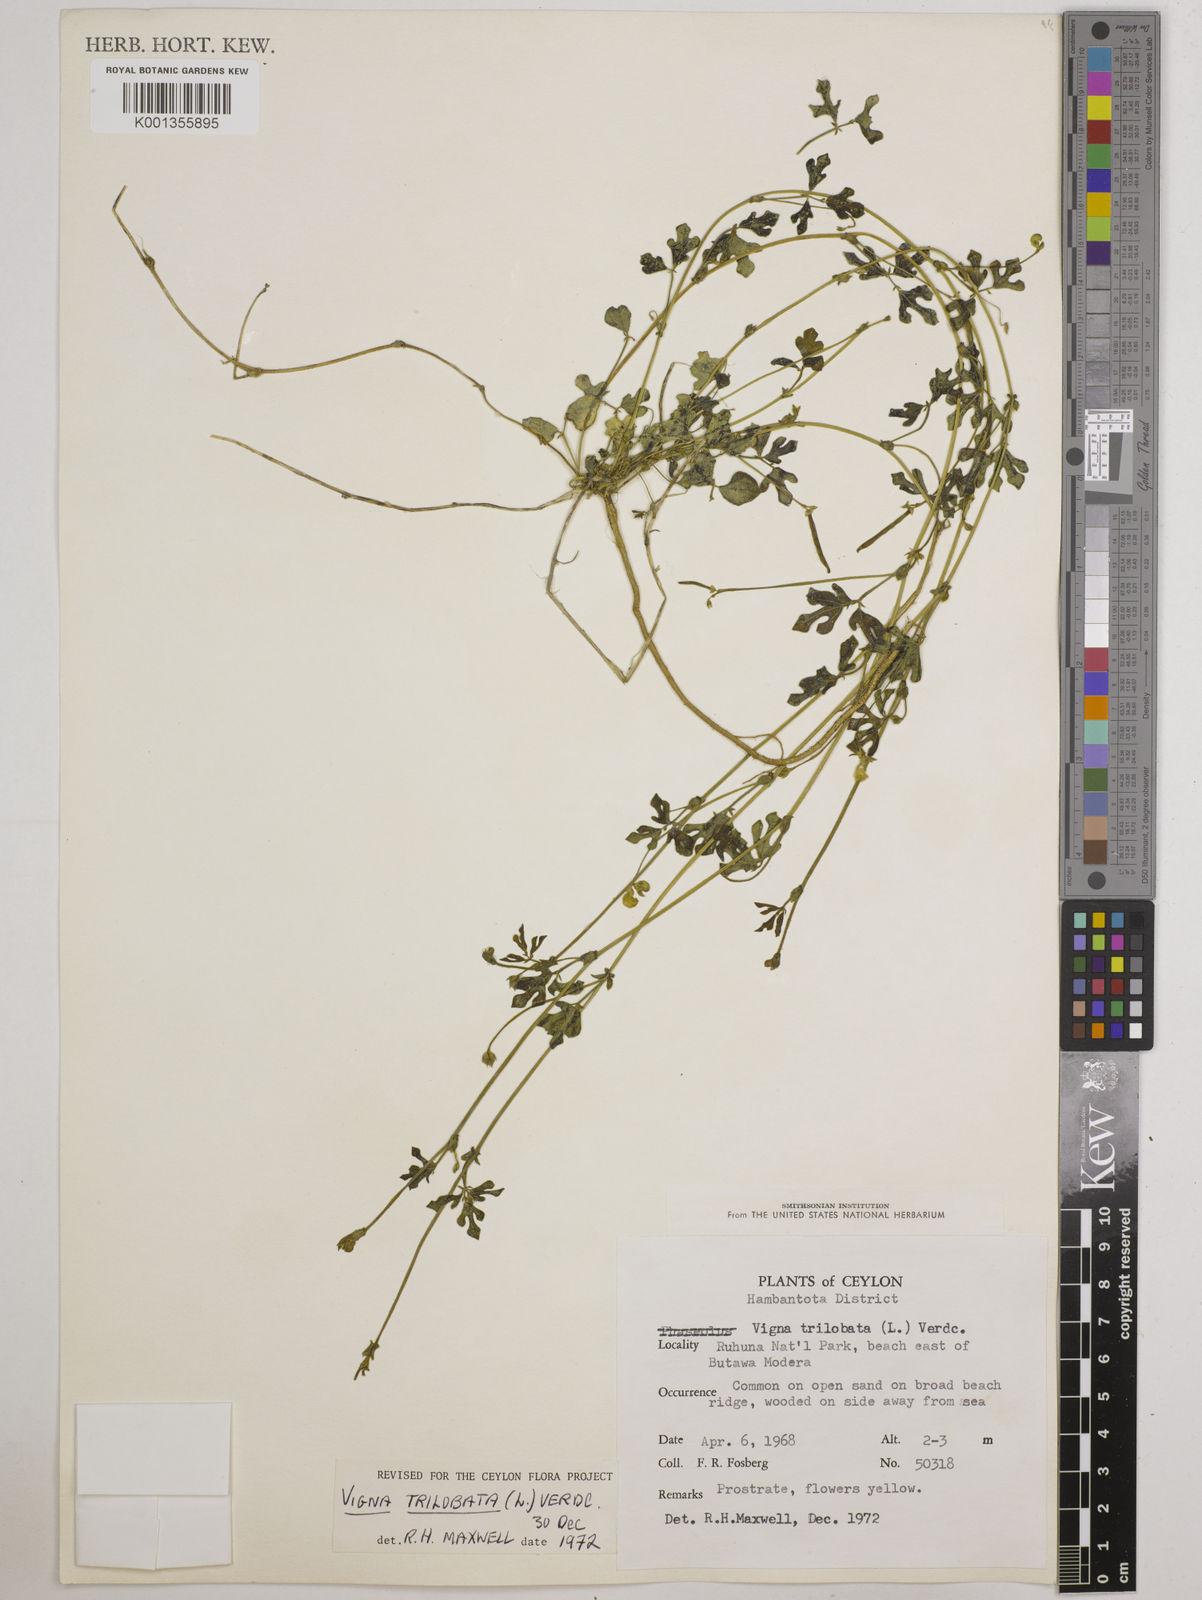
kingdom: Plantae
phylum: Tracheophyta
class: Magnoliopsida
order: Fabales
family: Fabaceae
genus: Vigna
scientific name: Vigna trilobata
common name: Jungli-bean
